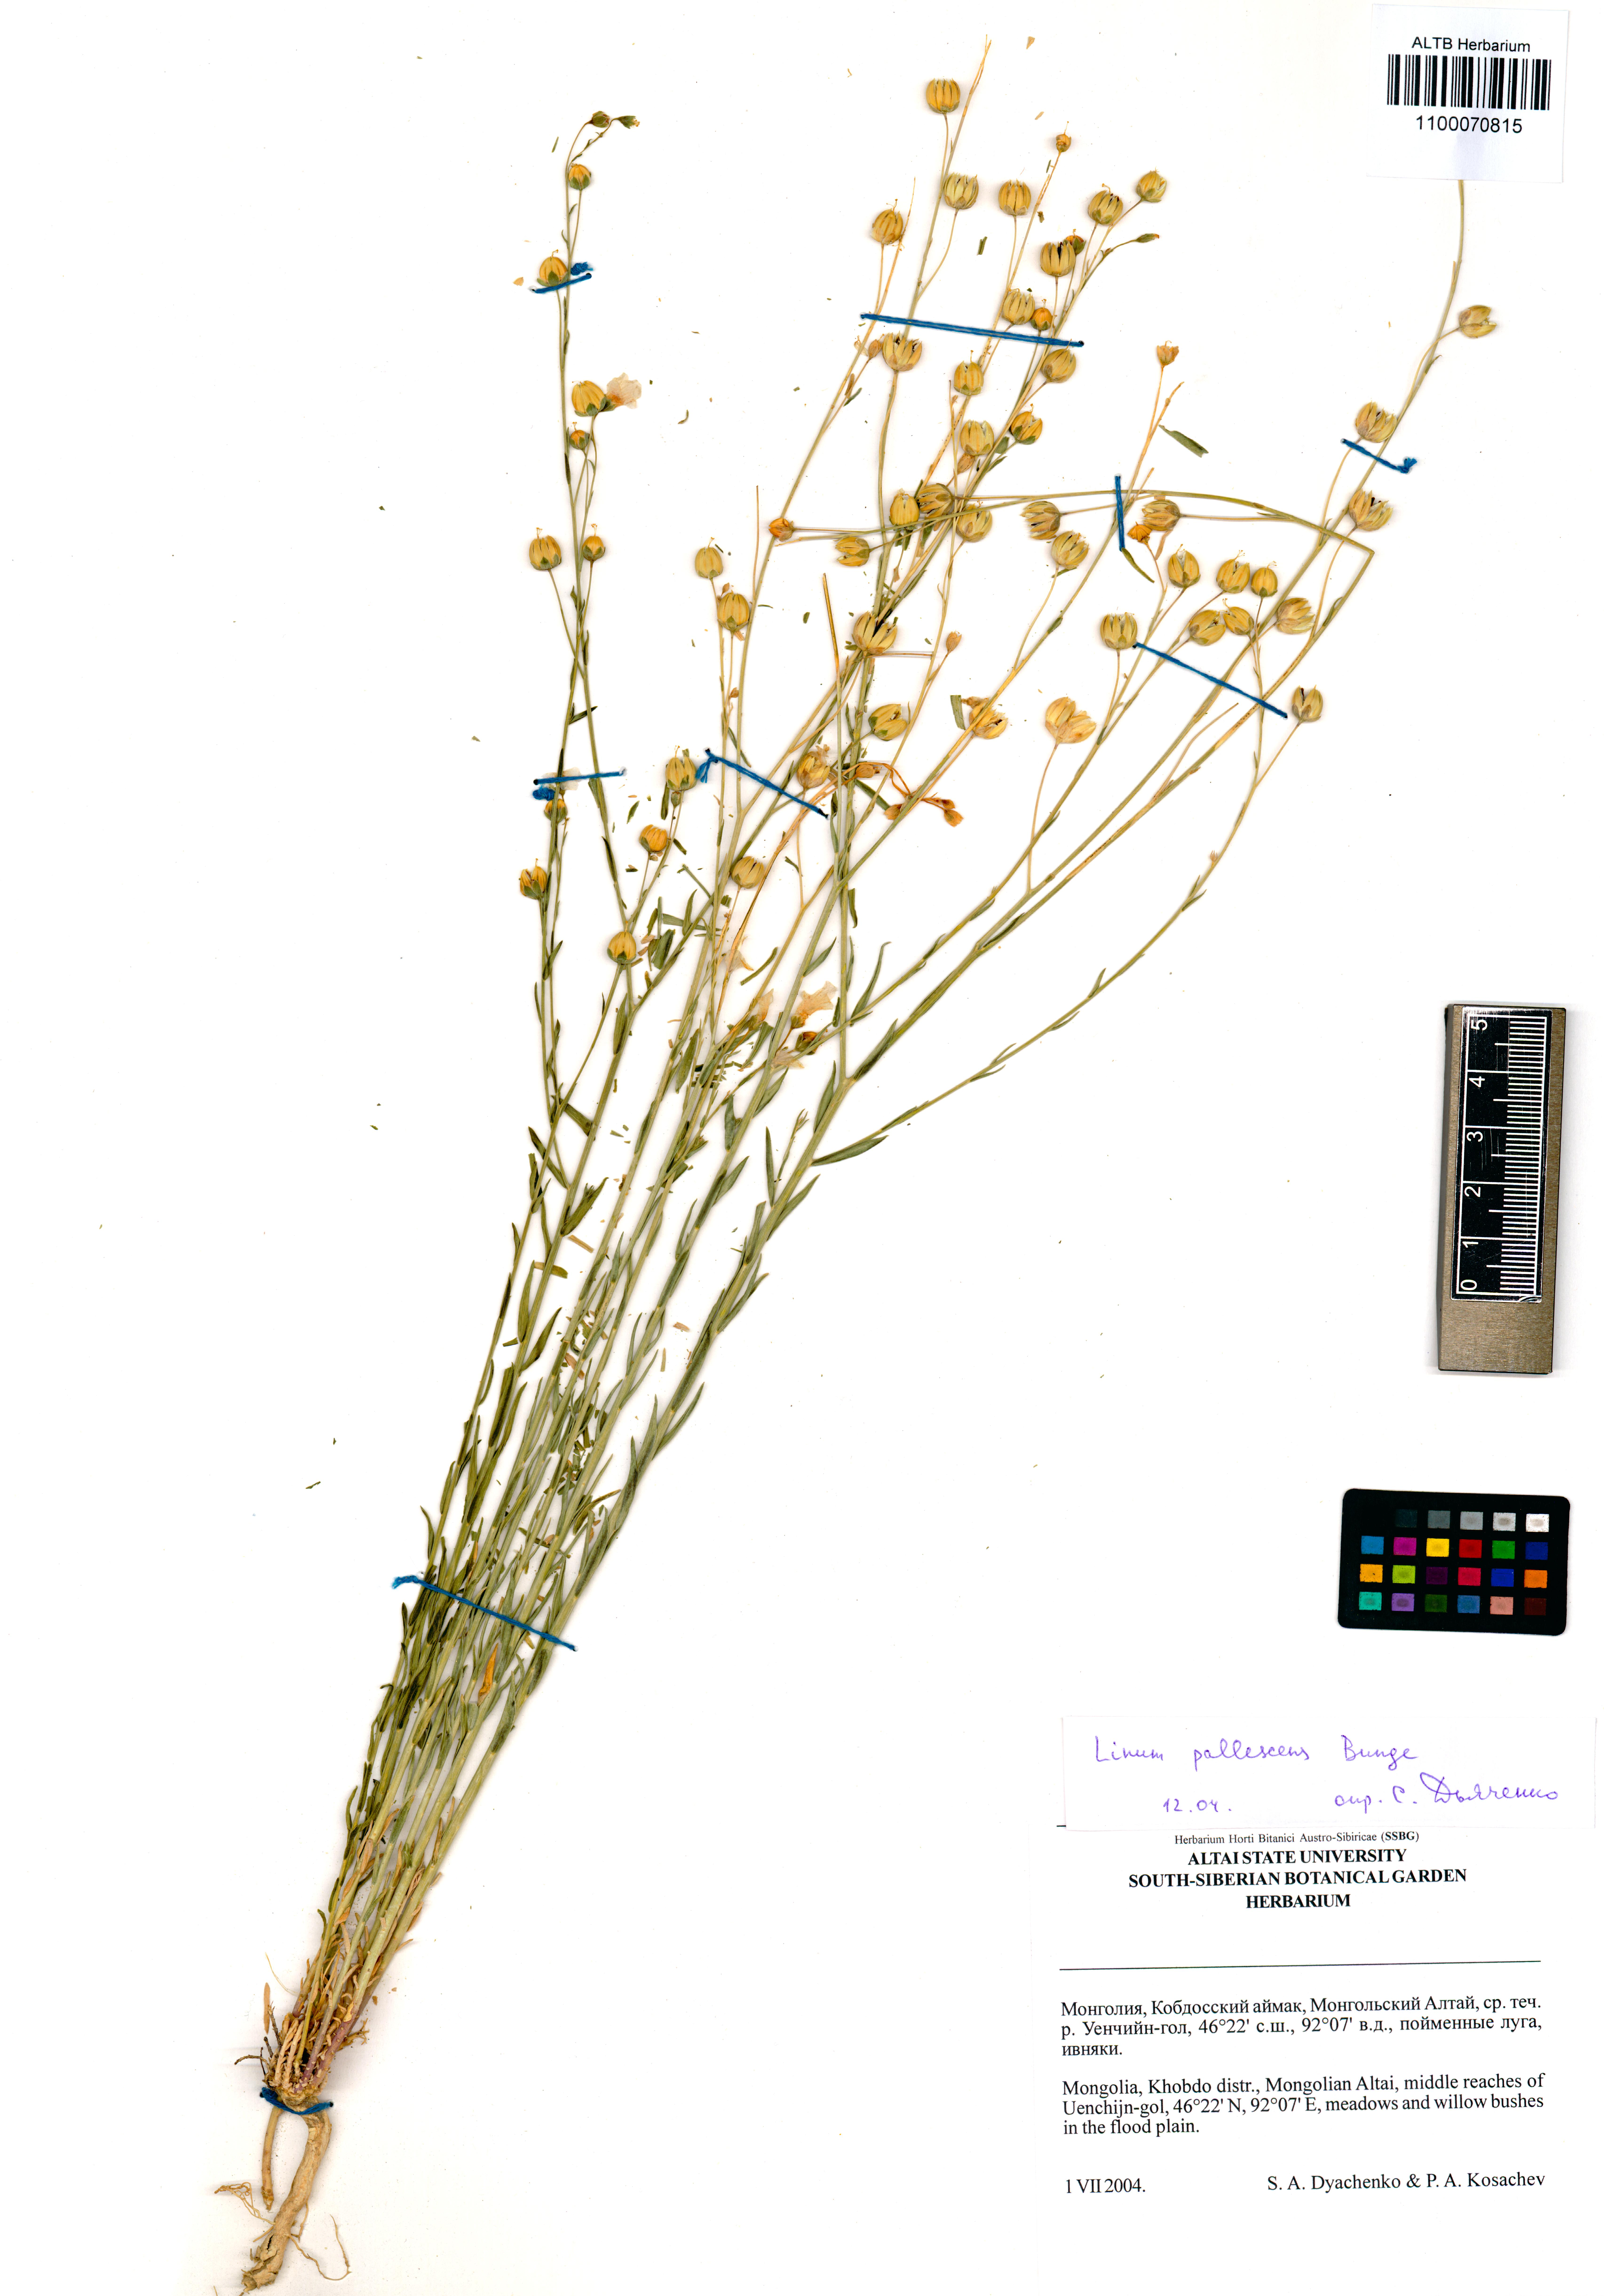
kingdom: Plantae
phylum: Tracheophyta
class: Magnoliopsida
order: Malpighiales
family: Linaceae
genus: Linum
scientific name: Linum pallescens
